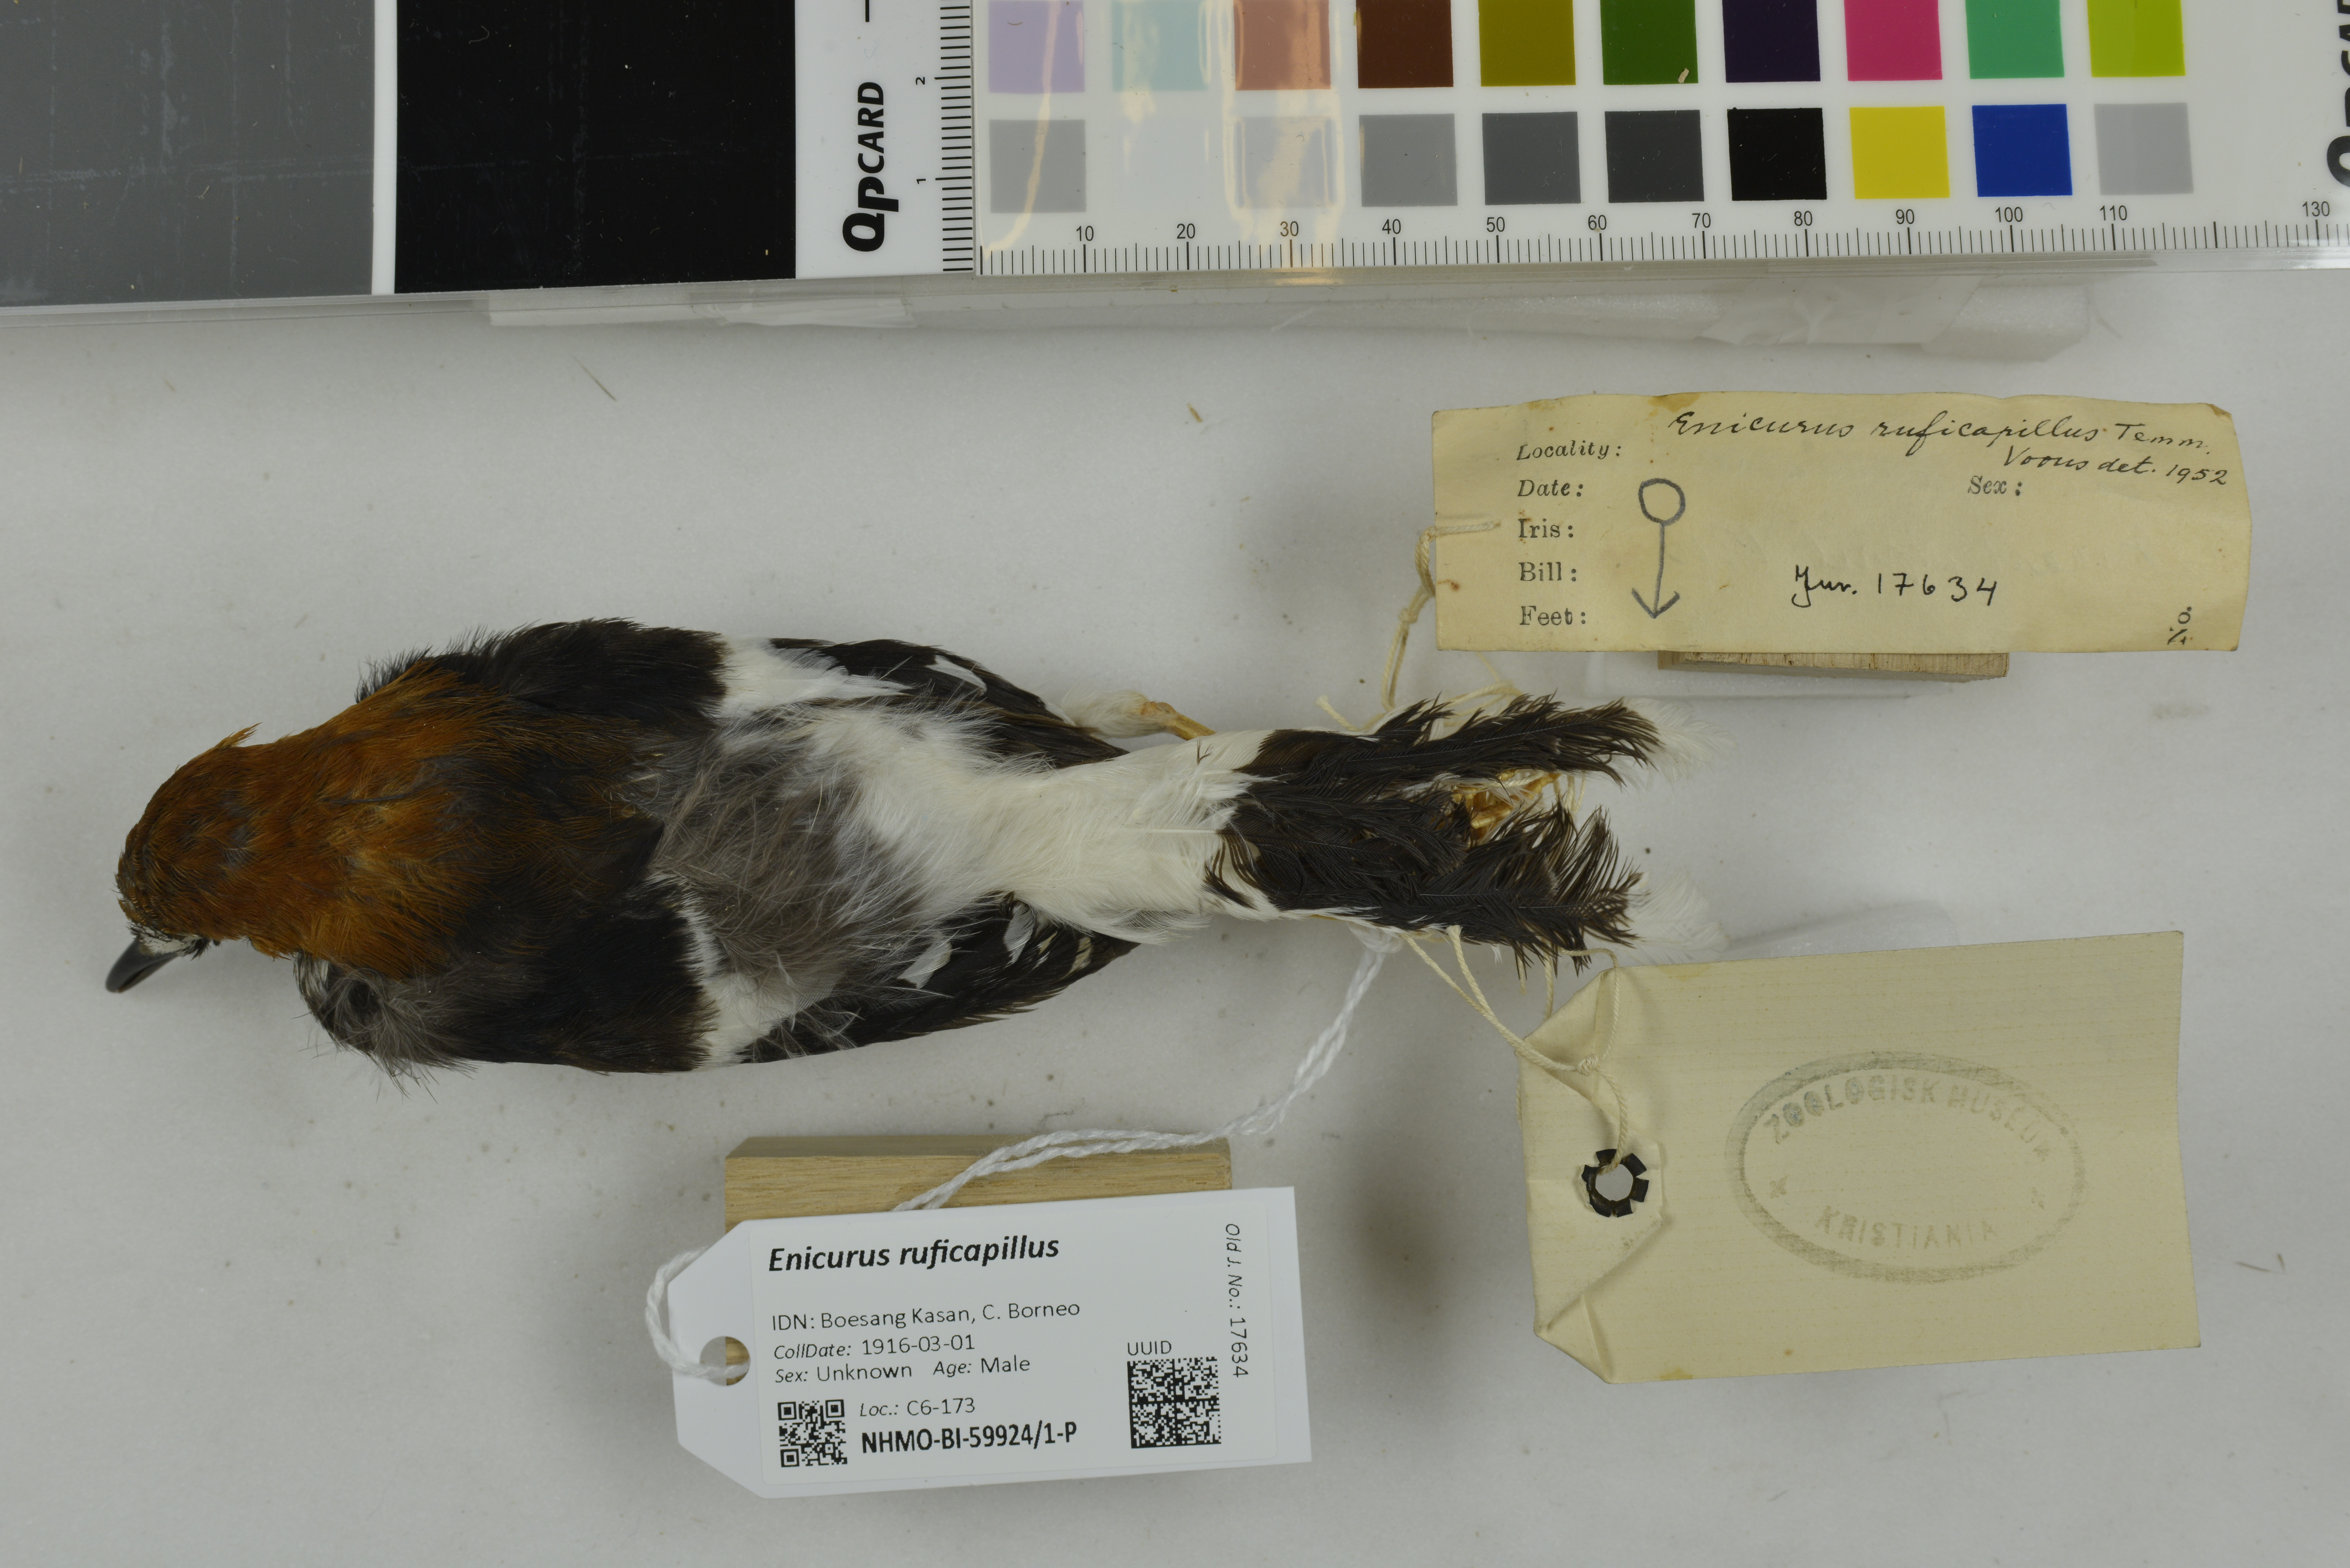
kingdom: Animalia
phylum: Chordata
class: Aves
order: Passeriformes
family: Muscicapidae
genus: Enicurus
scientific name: Enicurus ruficapillus
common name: Chestnut-naped forktail
